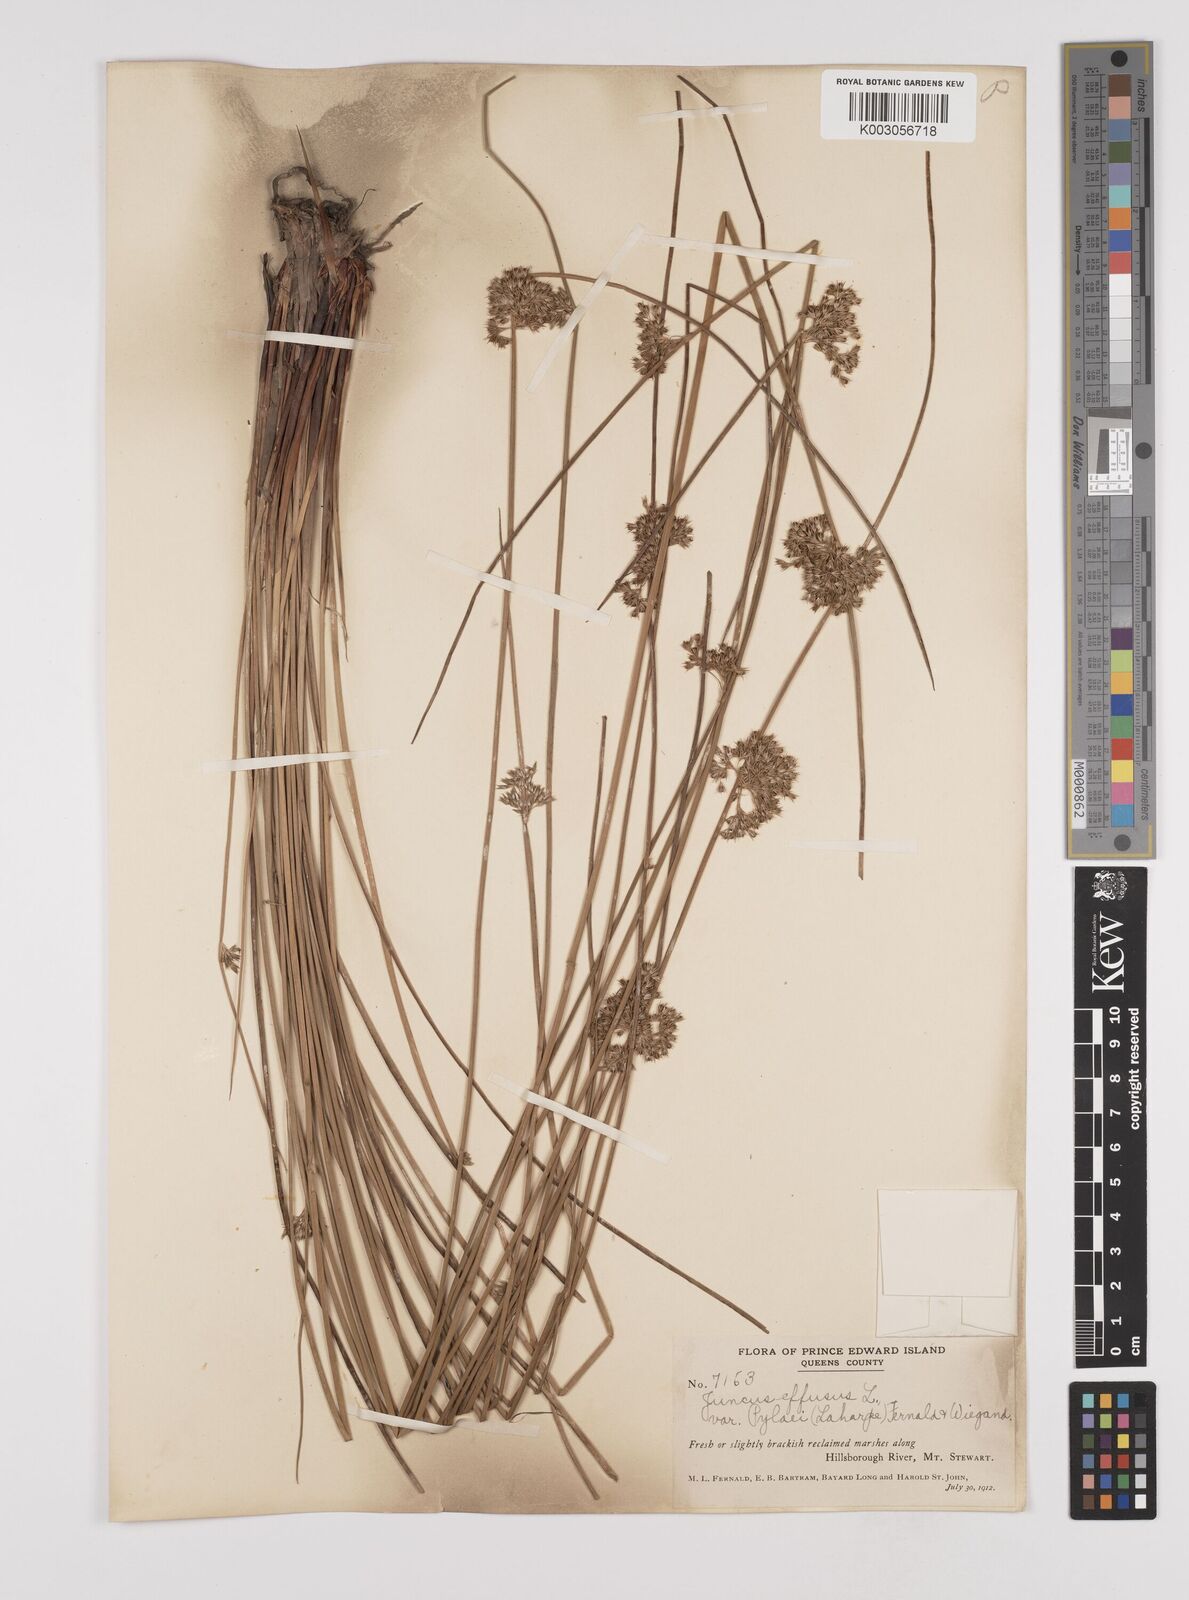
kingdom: Plantae
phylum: Tracheophyta
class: Liliopsida
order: Poales
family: Juncaceae
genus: Juncus
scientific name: Juncus pylaei
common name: Common rush
